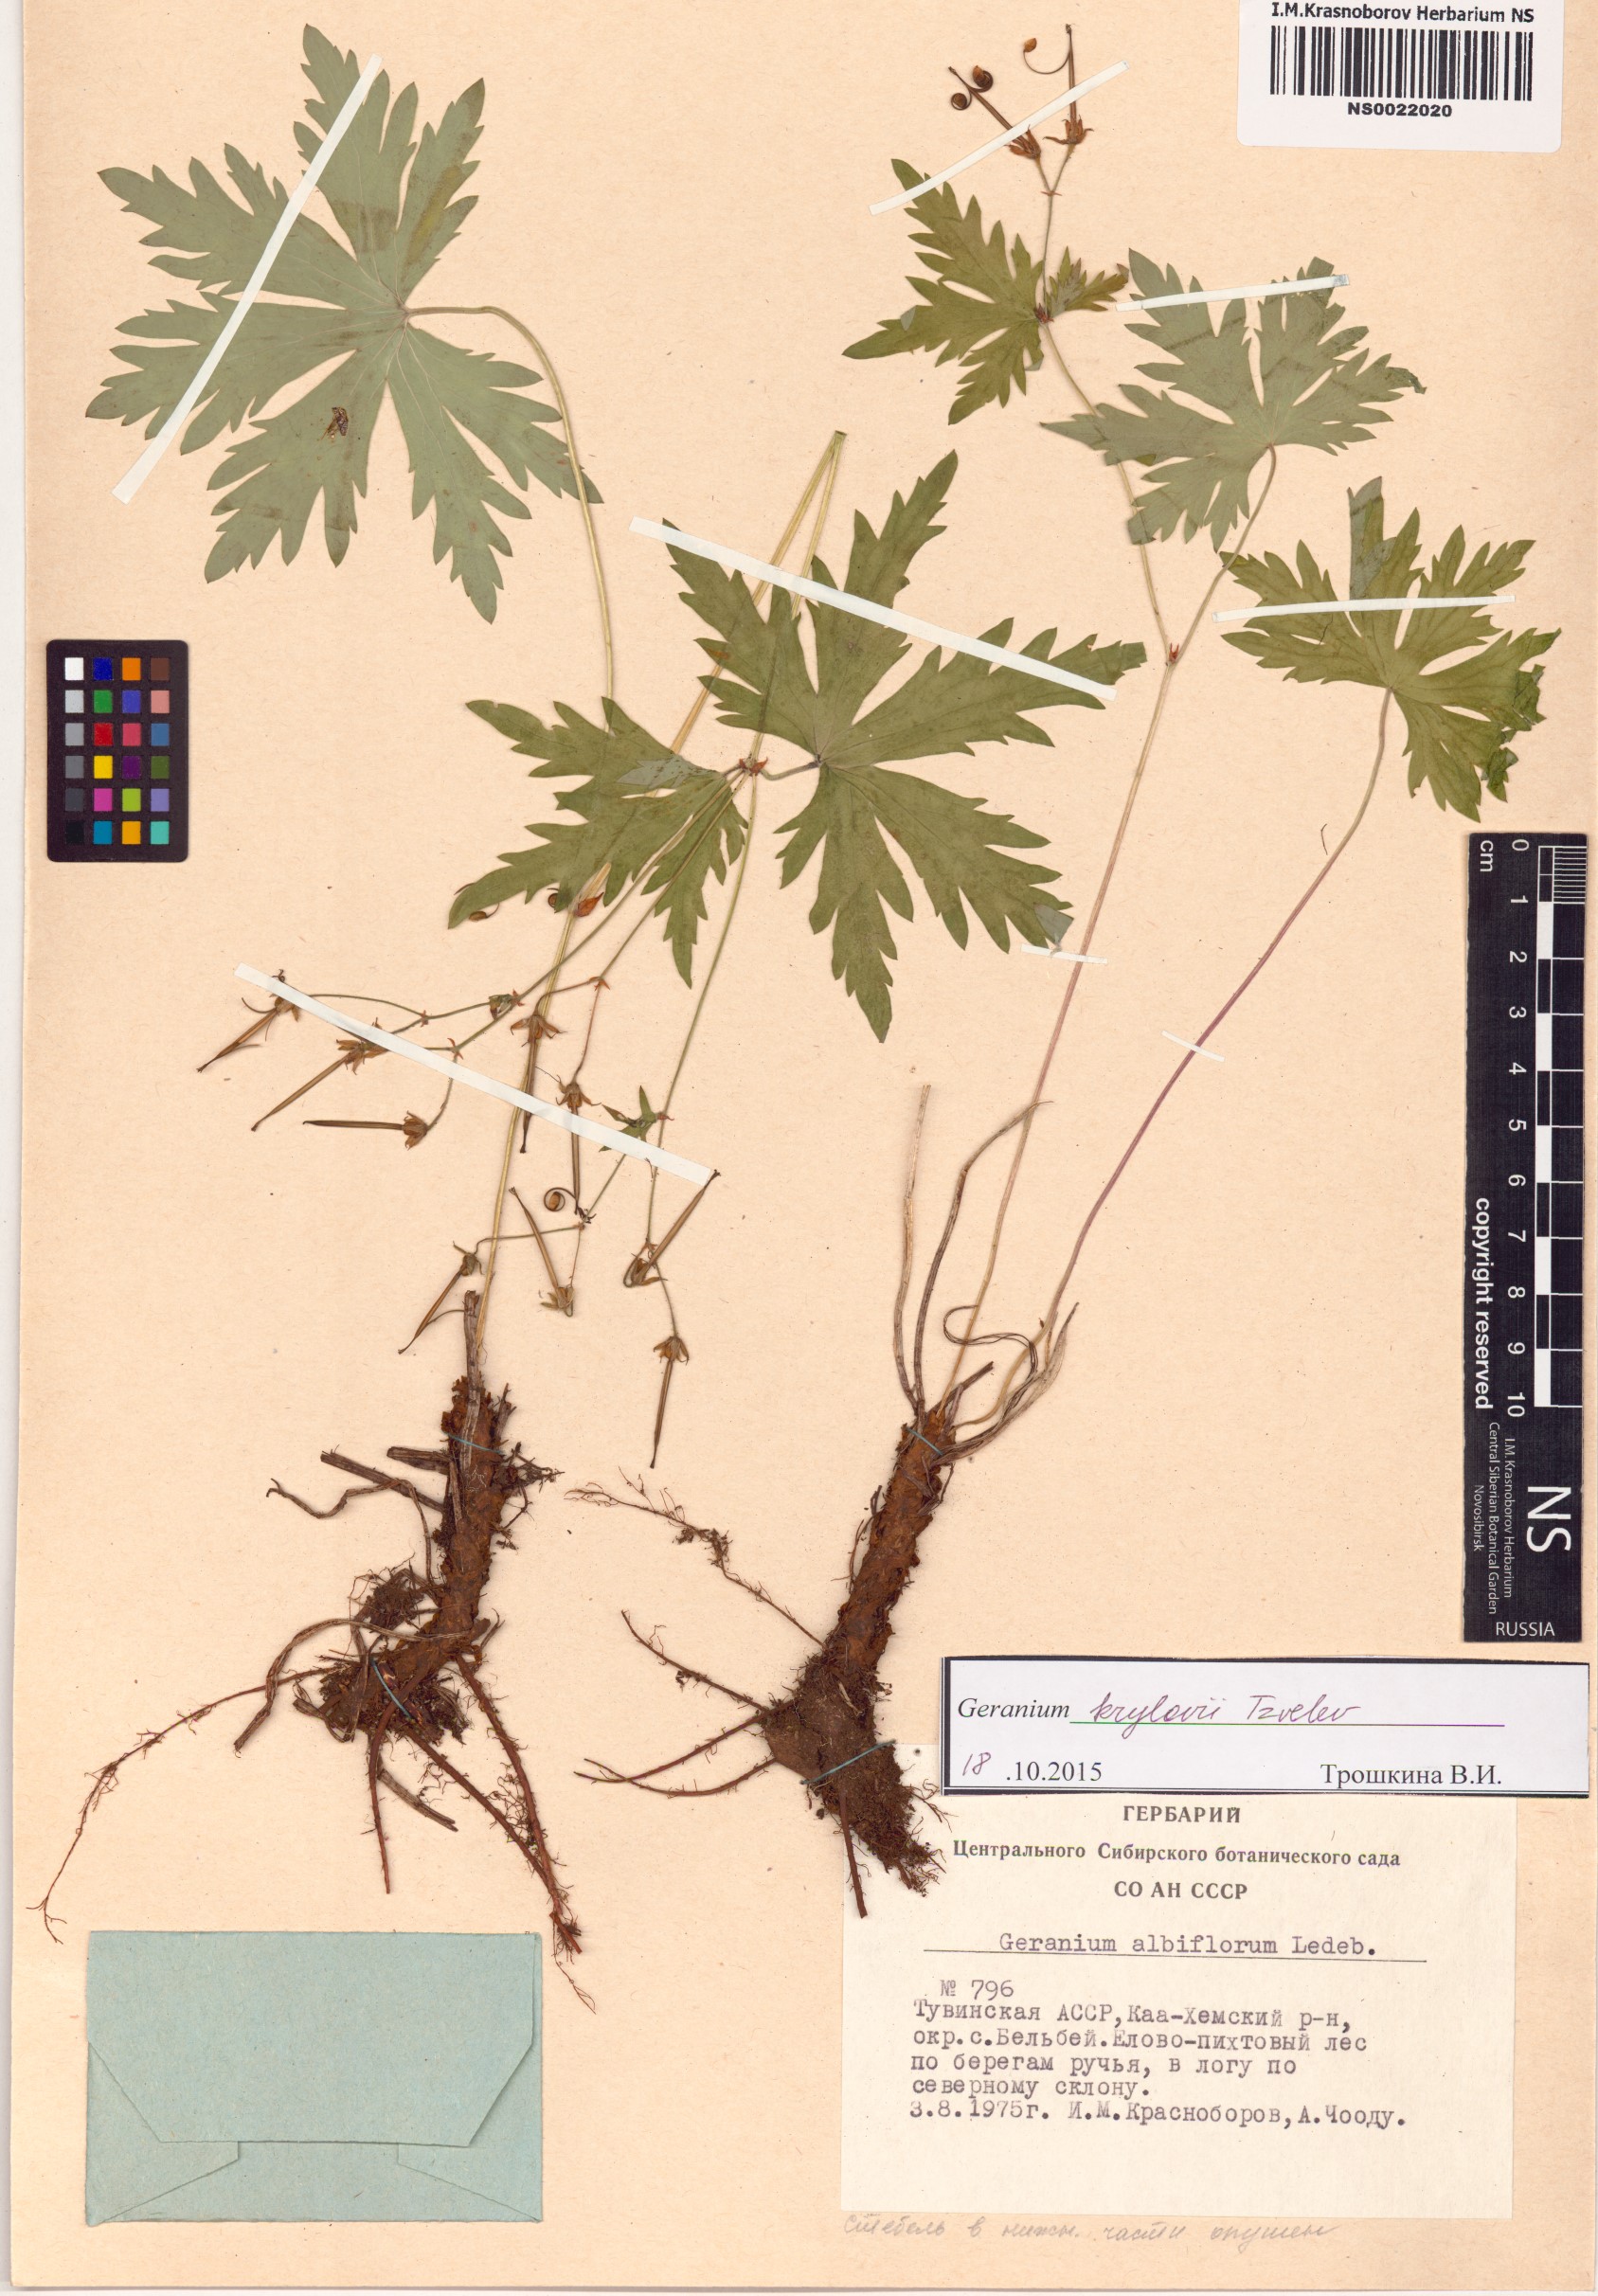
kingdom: Plantae
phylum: Tracheophyta
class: Magnoliopsida
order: Geraniales
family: Geraniaceae
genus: Geranium
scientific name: Geranium sylvaticum
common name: Wood crane's-bill
